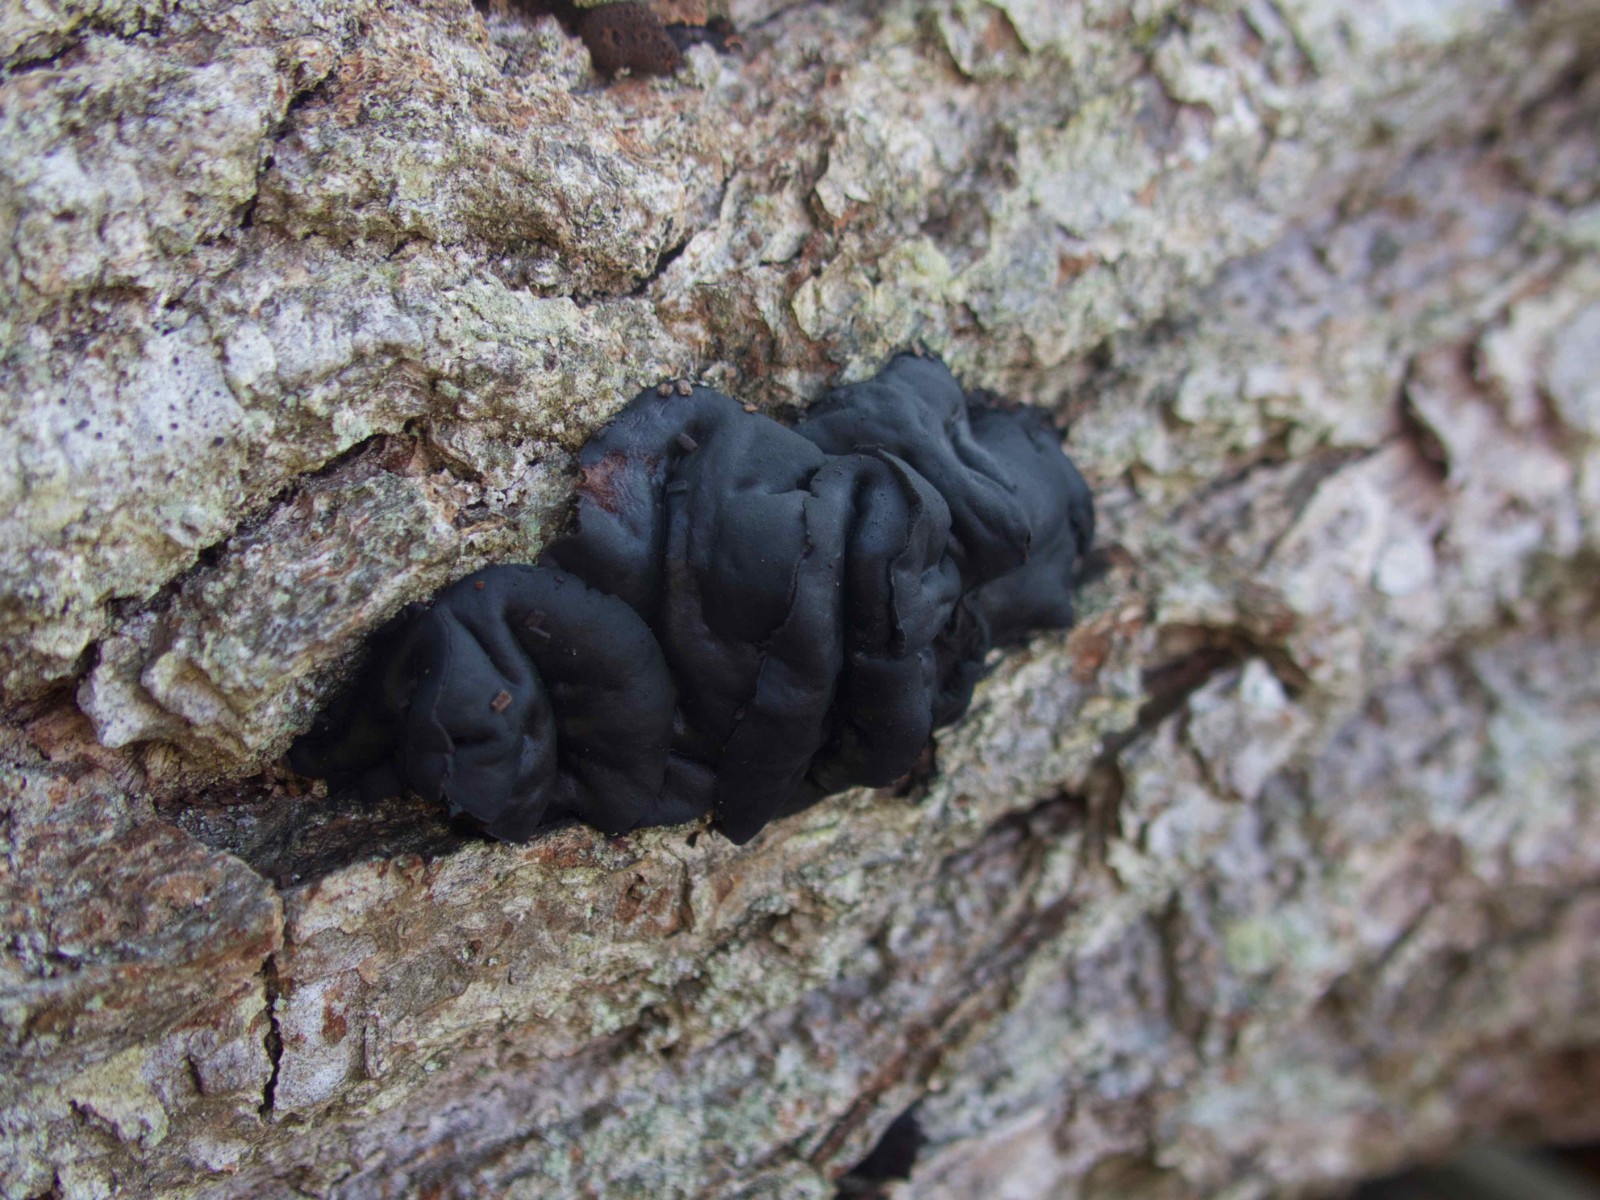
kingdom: Fungi
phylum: Ascomycota
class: Leotiomycetes
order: Phacidiales
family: Phacidiaceae
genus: Bulgaria
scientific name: Bulgaria inquinans
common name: afsmittende topsvamp
